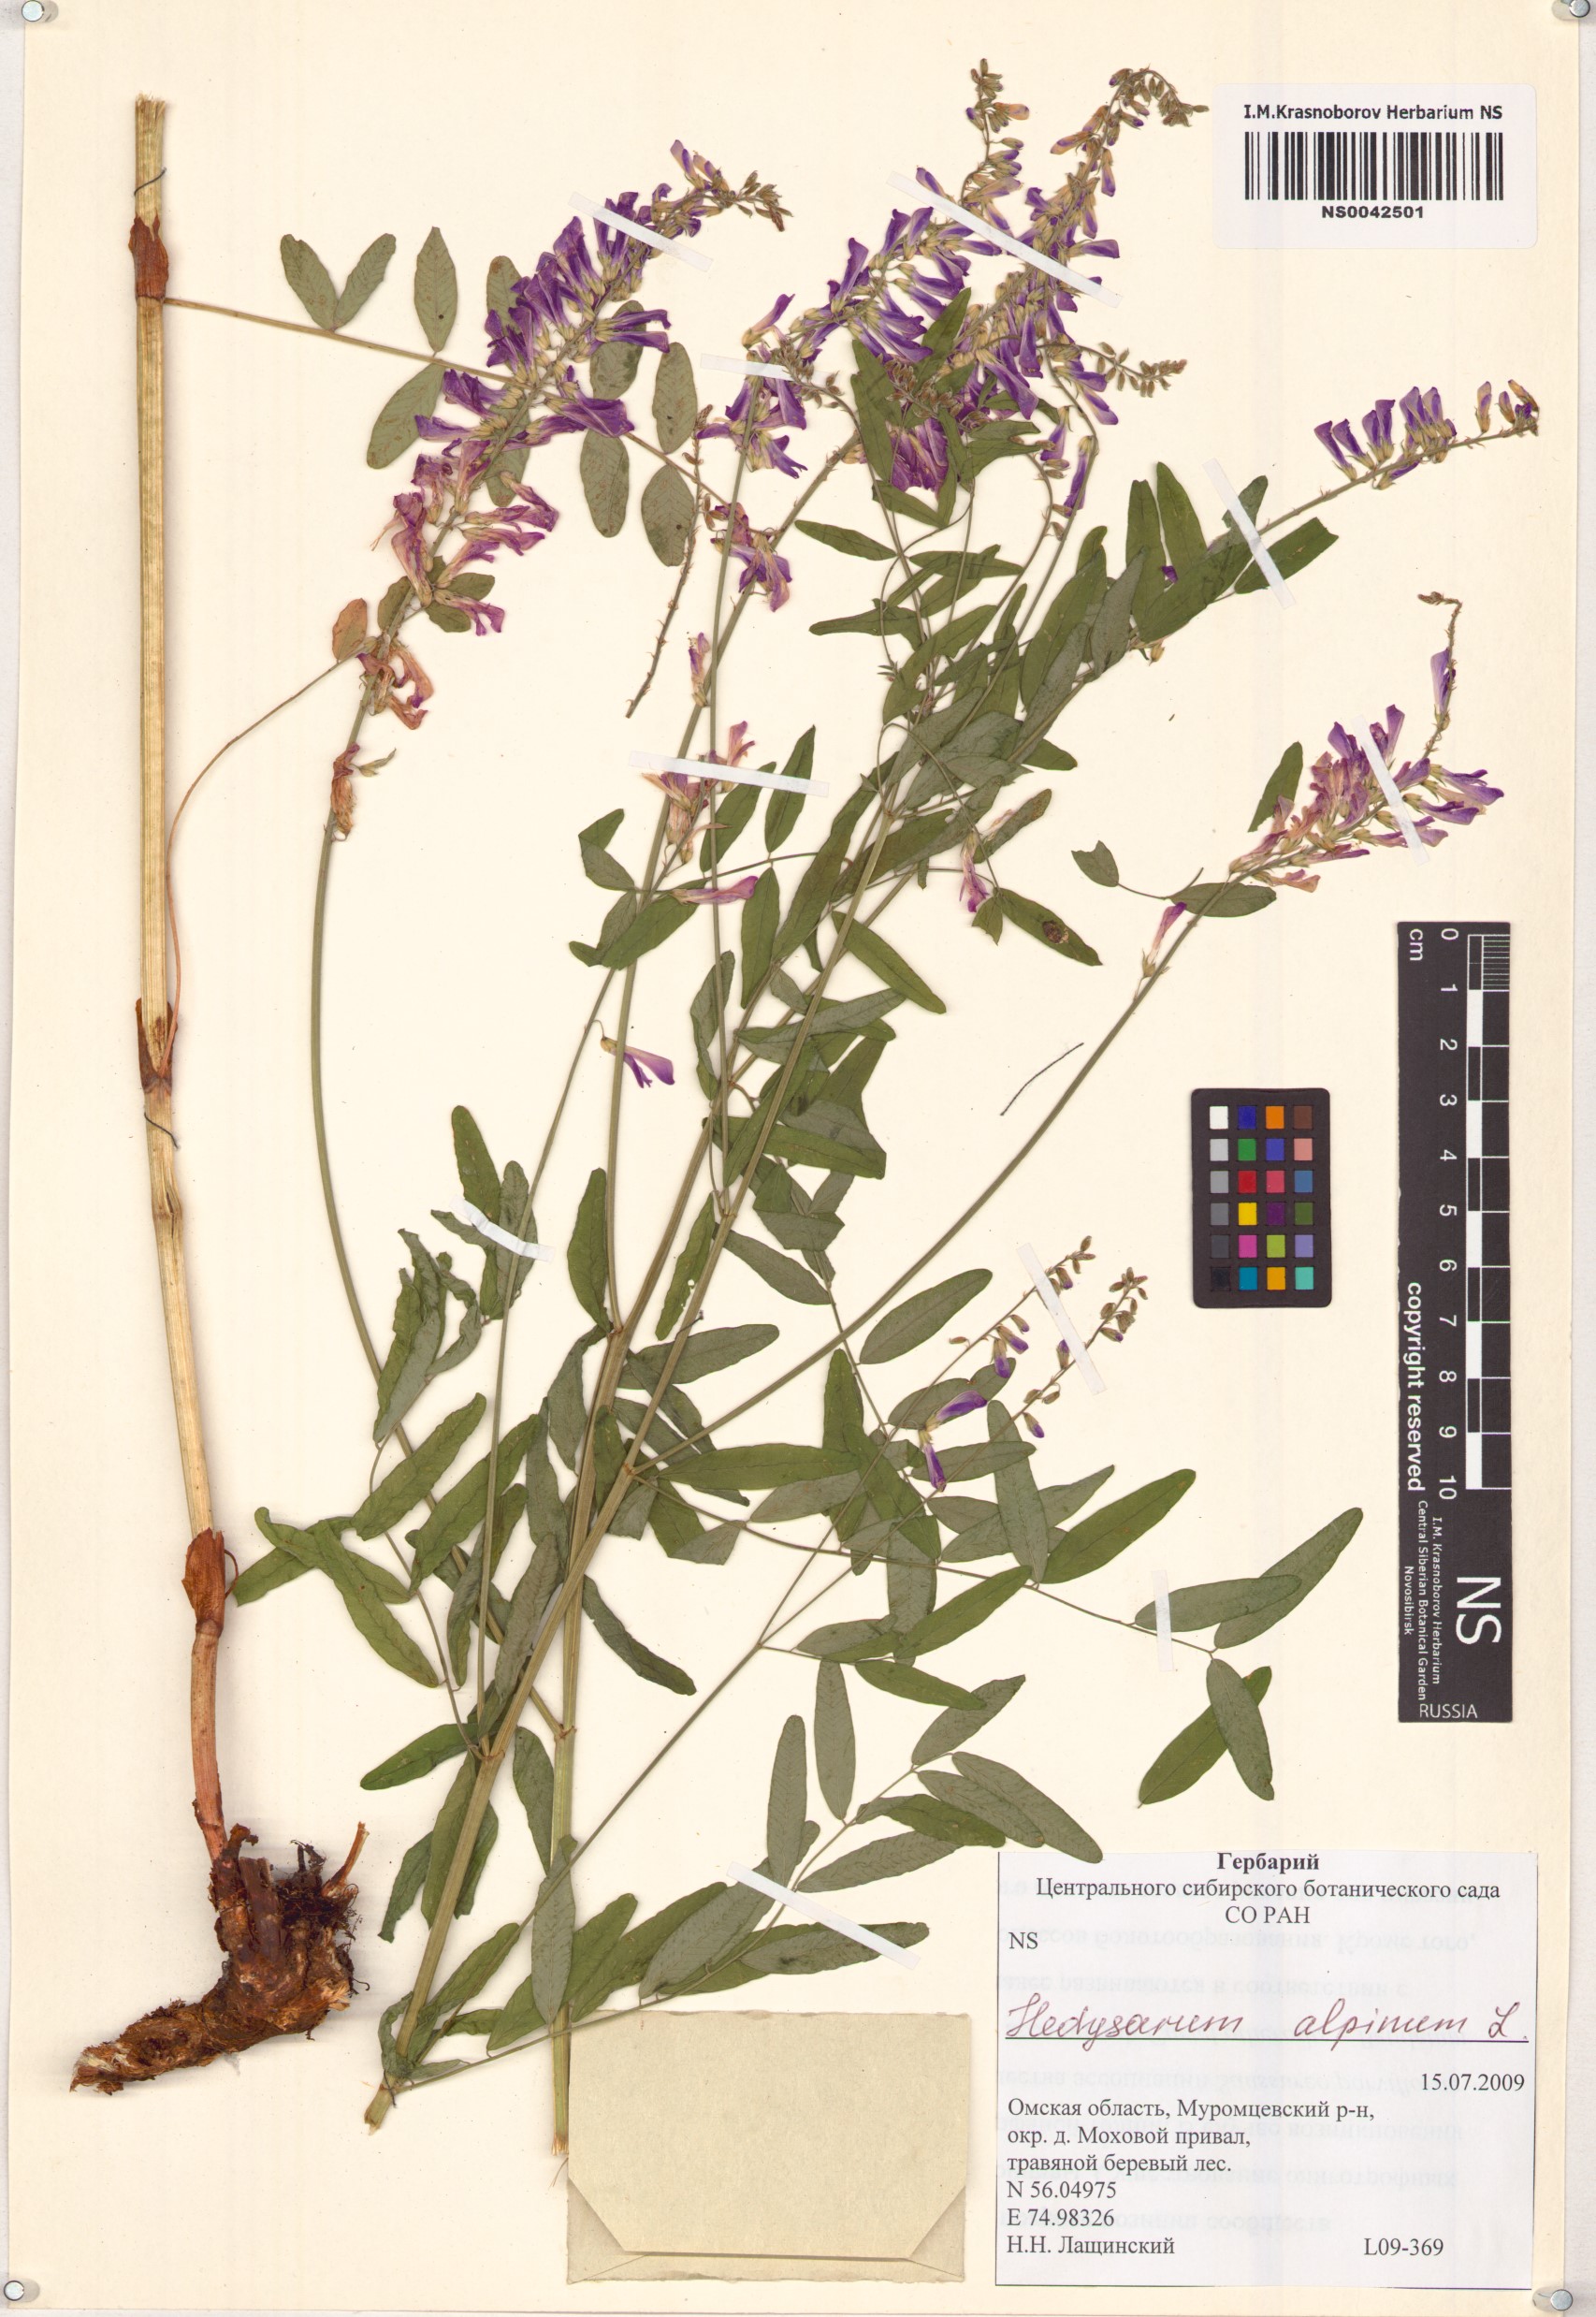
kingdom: Plantae
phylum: Tracheophyta
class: Magnoliopsida
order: Fabales
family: Fabaceae
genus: Hedysarum
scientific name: Hedysarum alpinum
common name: Alpine sweet-vetch
